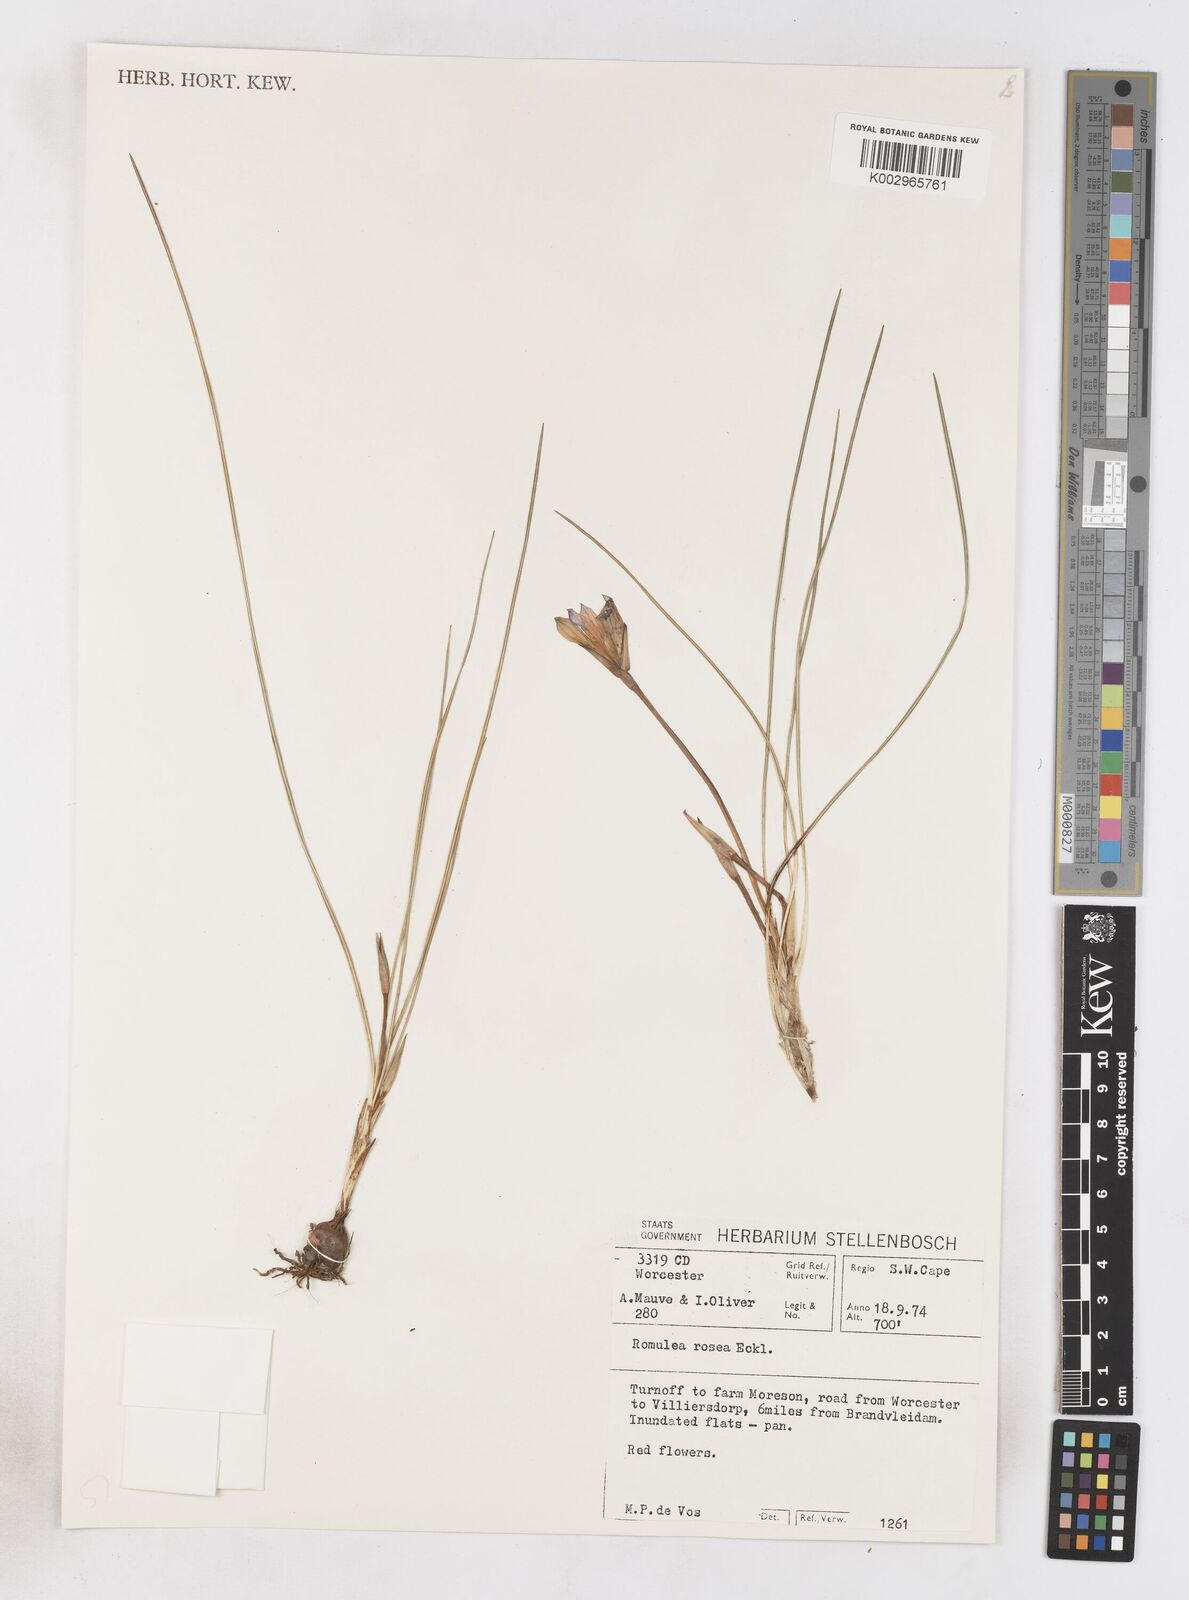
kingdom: Plantae
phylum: Tracheophyta
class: Liliopsida
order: Asparagales
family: Iridaceae
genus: Romulea
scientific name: Romulea rosea
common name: Oniongrass
